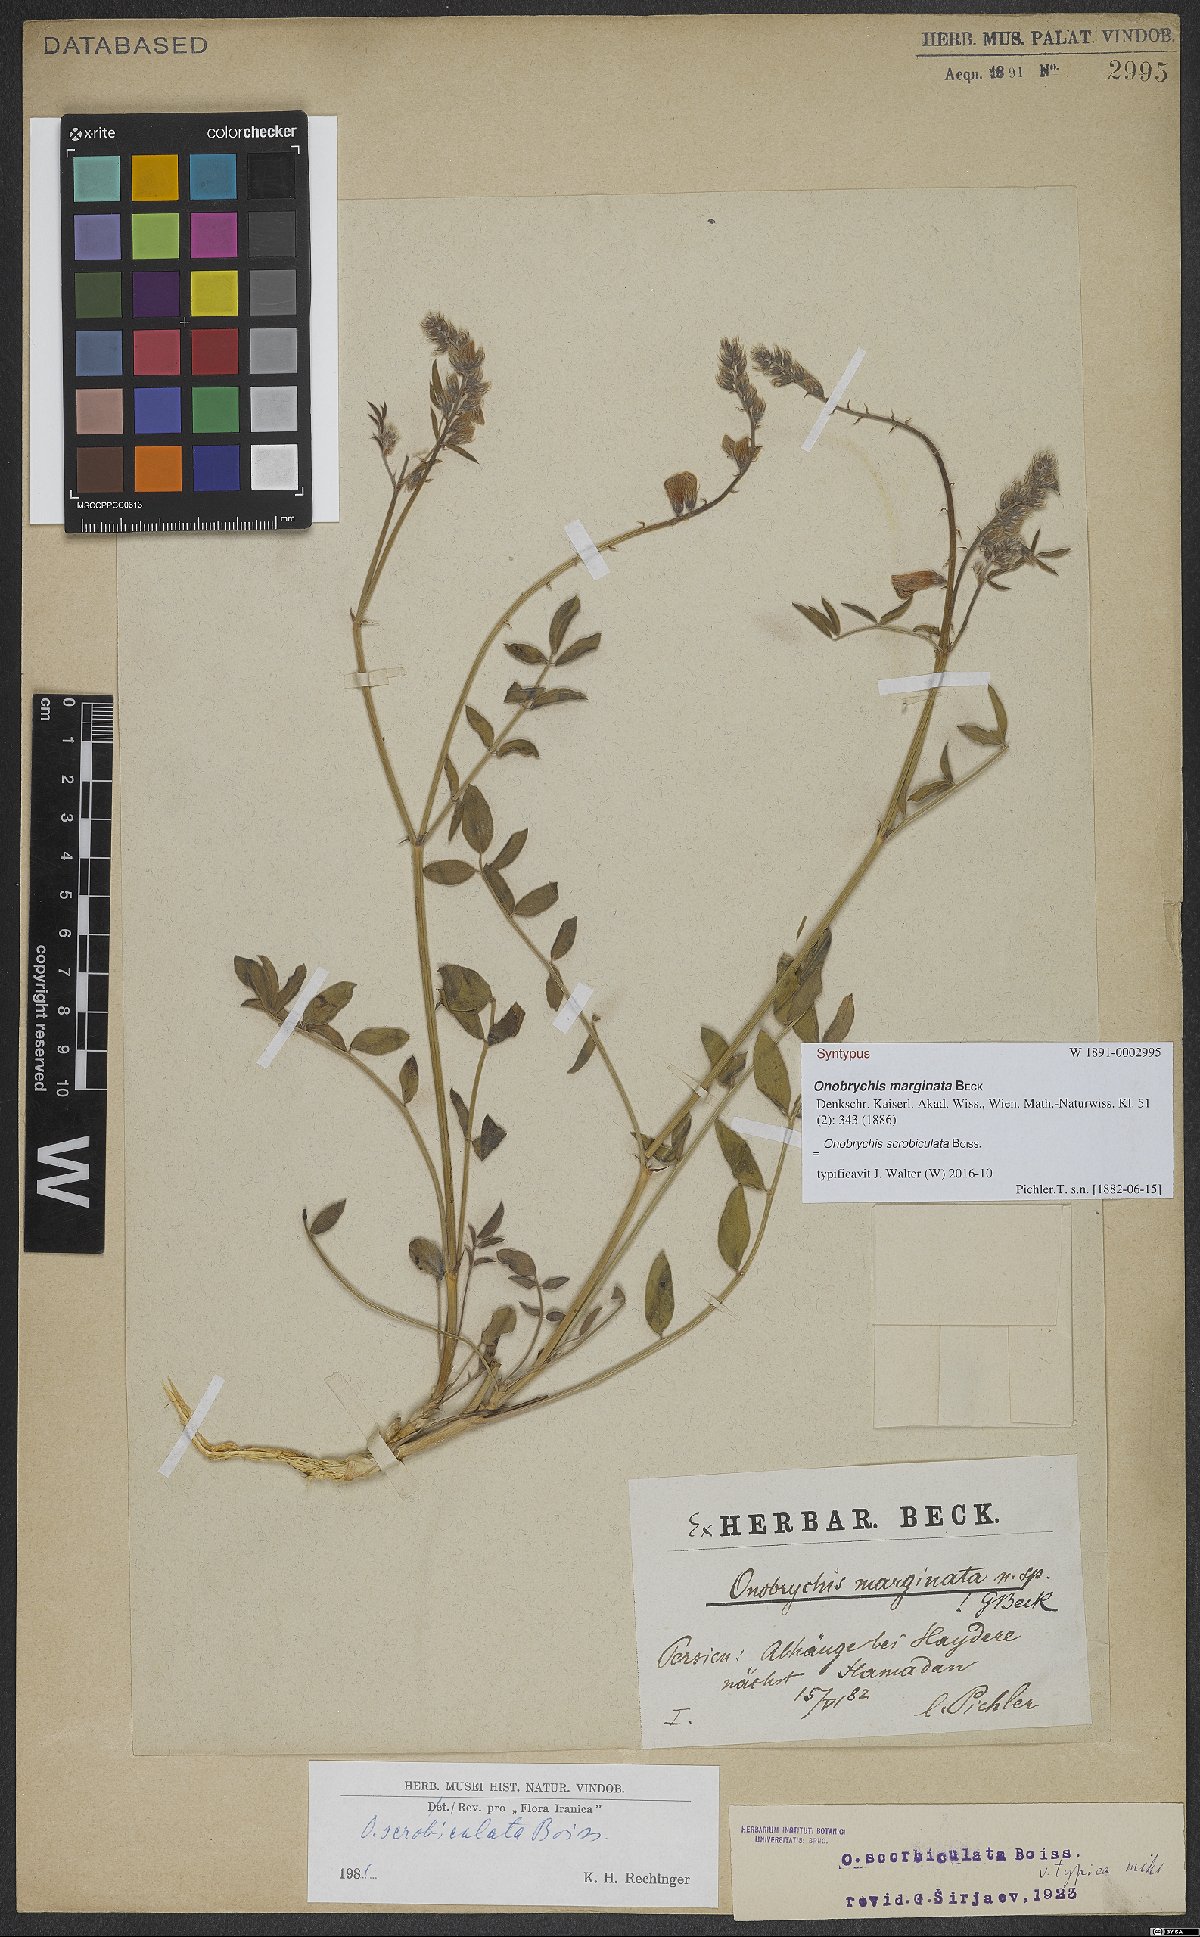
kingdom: Plantae
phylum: Tracheophyta
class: Magnoliopsida
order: Fabales
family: Fabaceae
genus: Onobrychis
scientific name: Onobrychis scrobiculata
